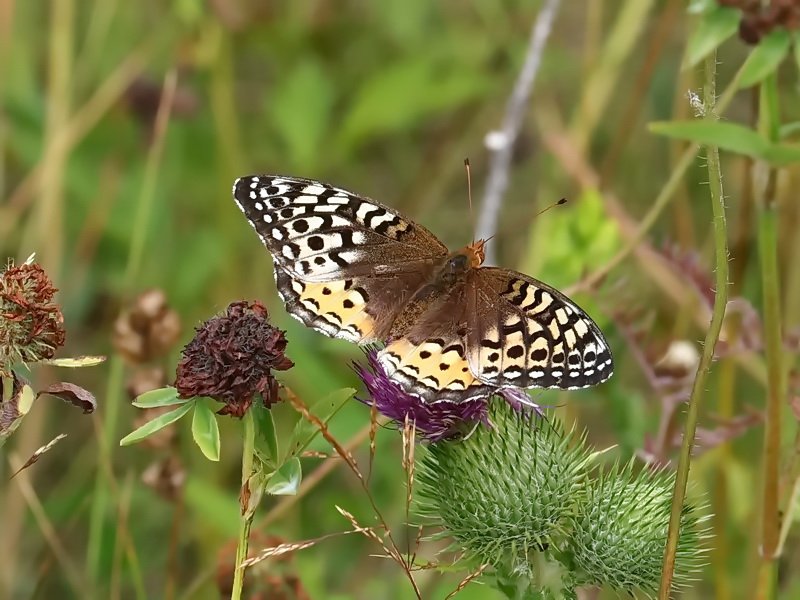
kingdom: Animalia
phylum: Arthropoda
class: Insecta
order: Lepidoptera
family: Nymphalidae
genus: Speyeria
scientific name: Speyeria cybele
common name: Great Spangled Fritillary
